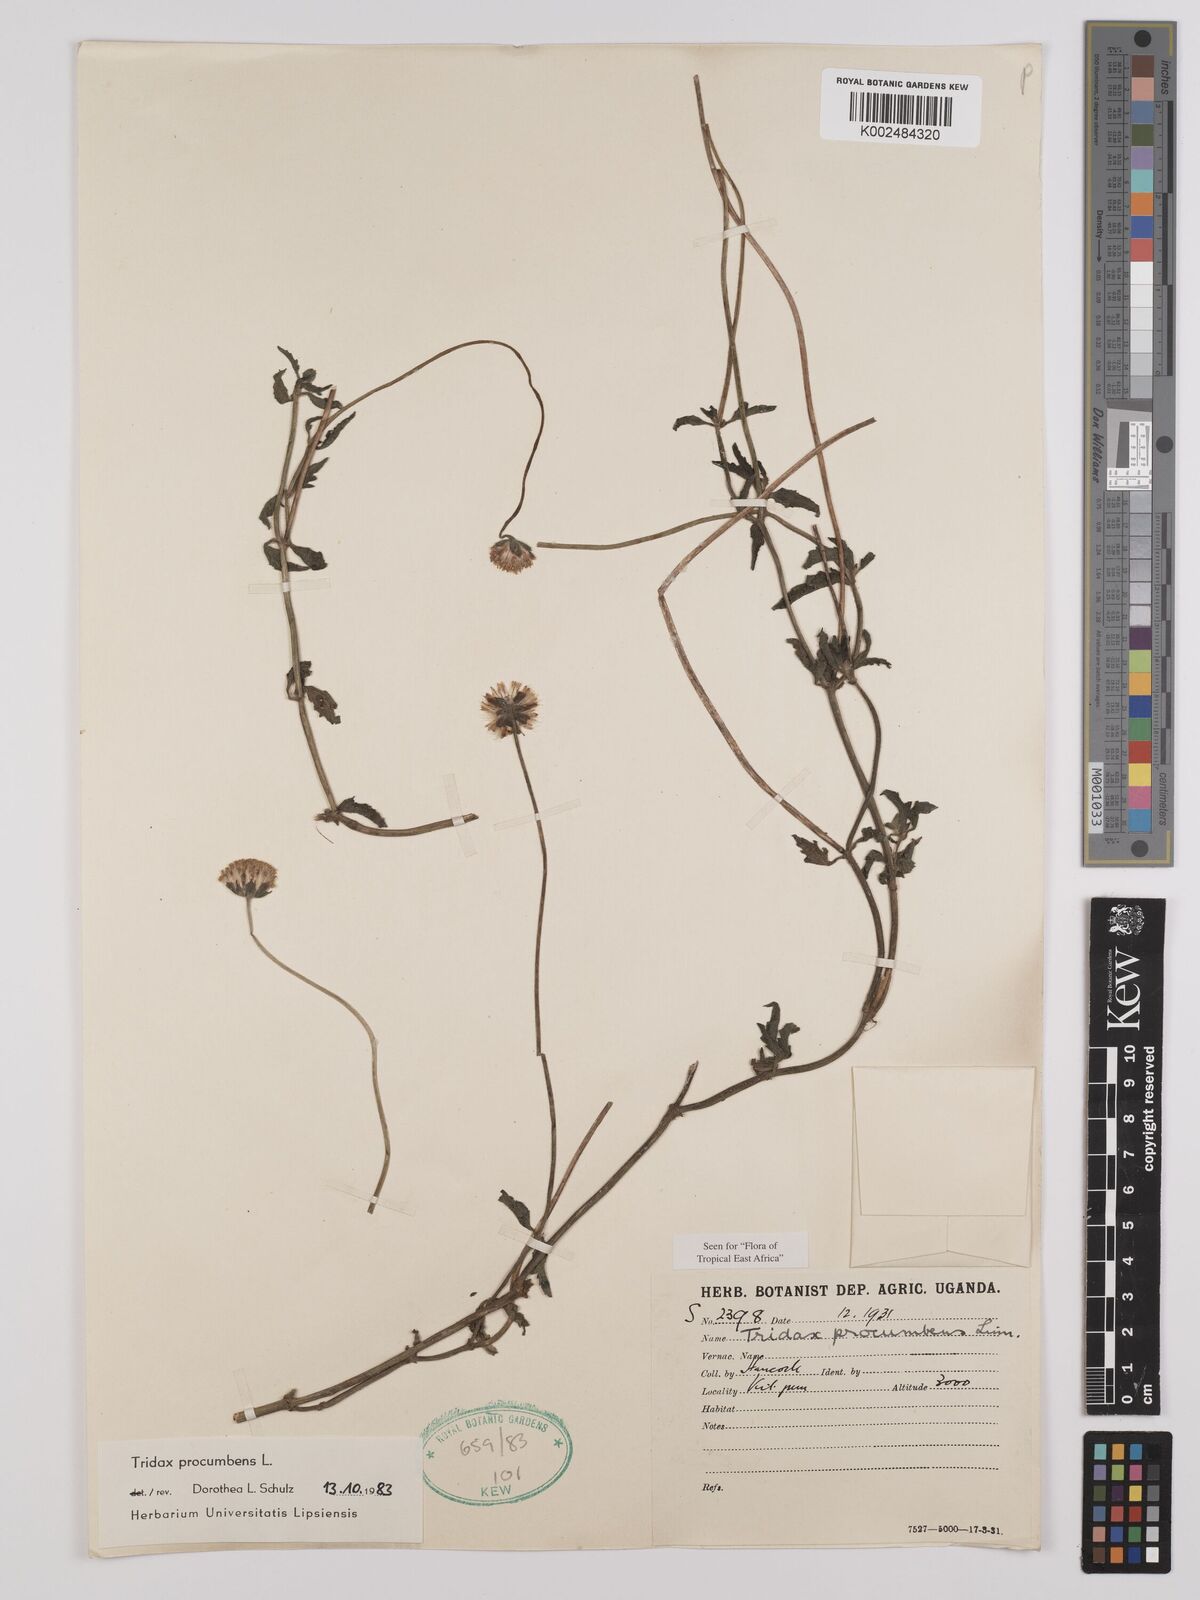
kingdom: Plantae
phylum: Tracheophyta
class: Magnoliopsida
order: Asterales
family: Asteraceae
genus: Tridax
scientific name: Tridax procumbens
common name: Coatbuttons
